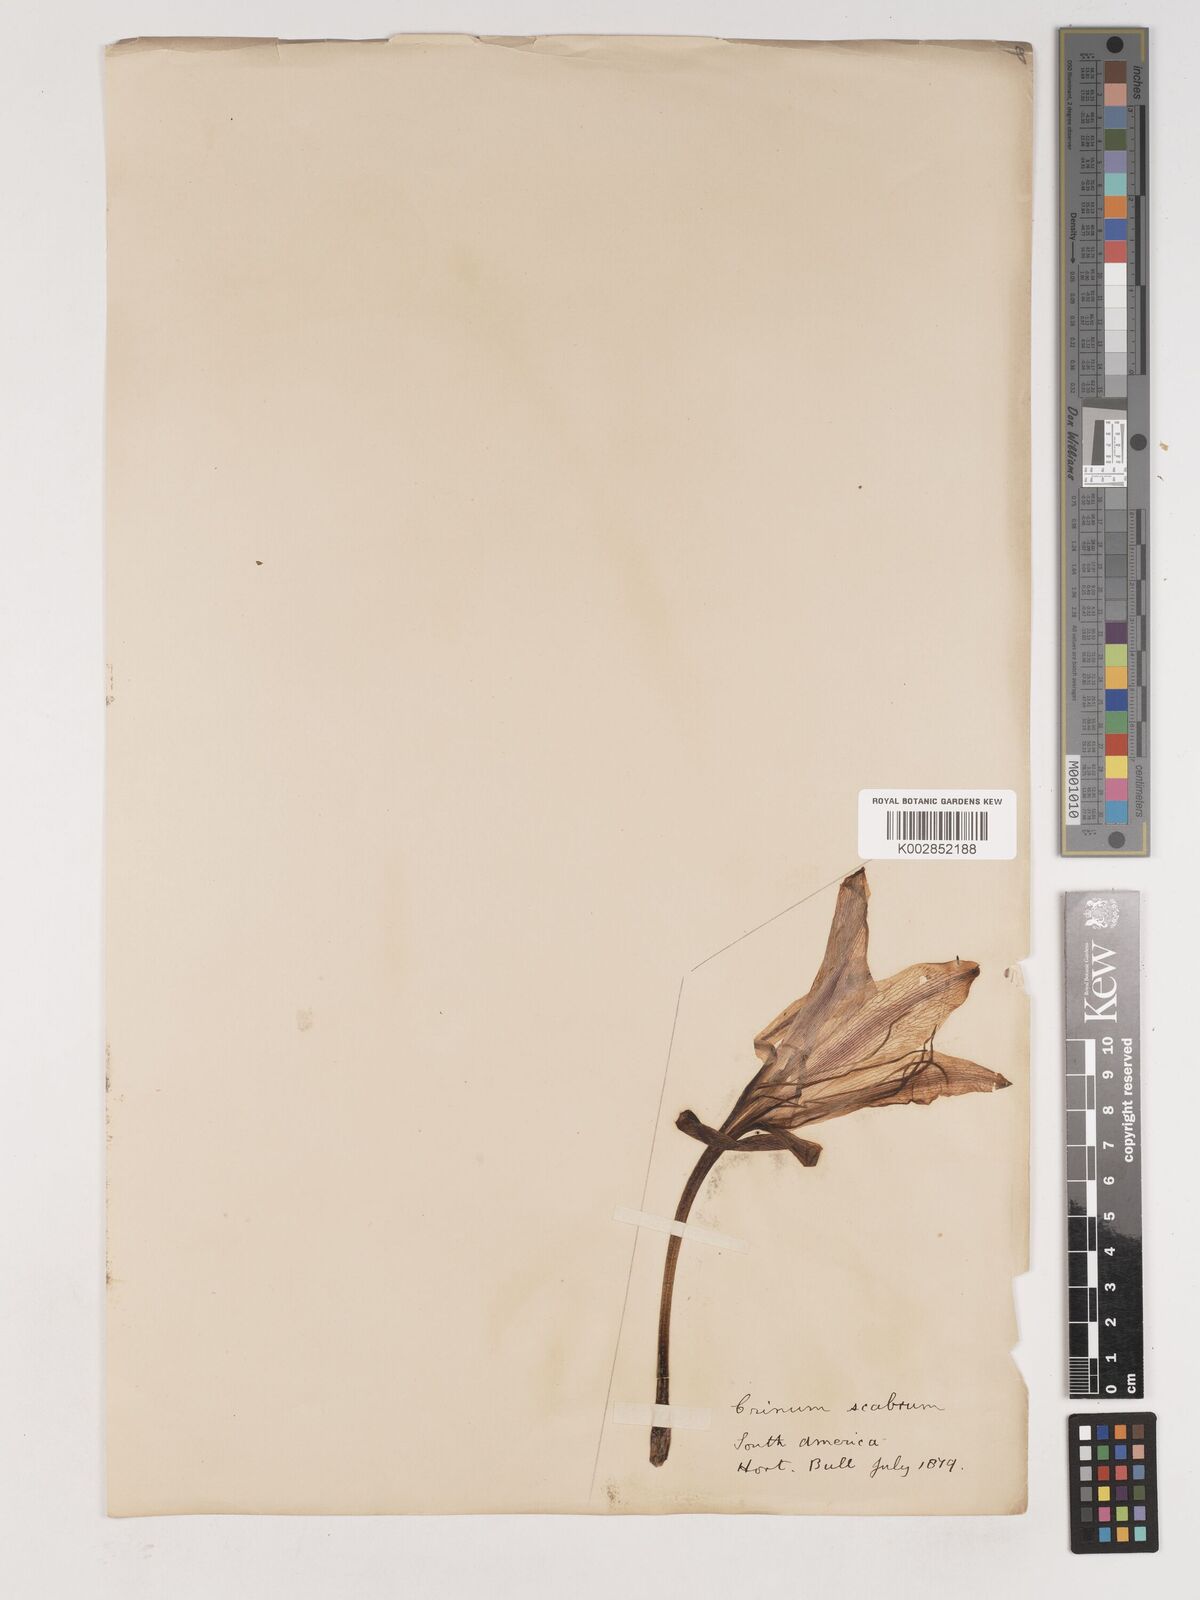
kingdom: Plantae
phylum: Tracheophyta
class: Liliopsida
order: Asparagales
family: Amaryllidaceae
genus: Crinum
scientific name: Crinum ornatum
